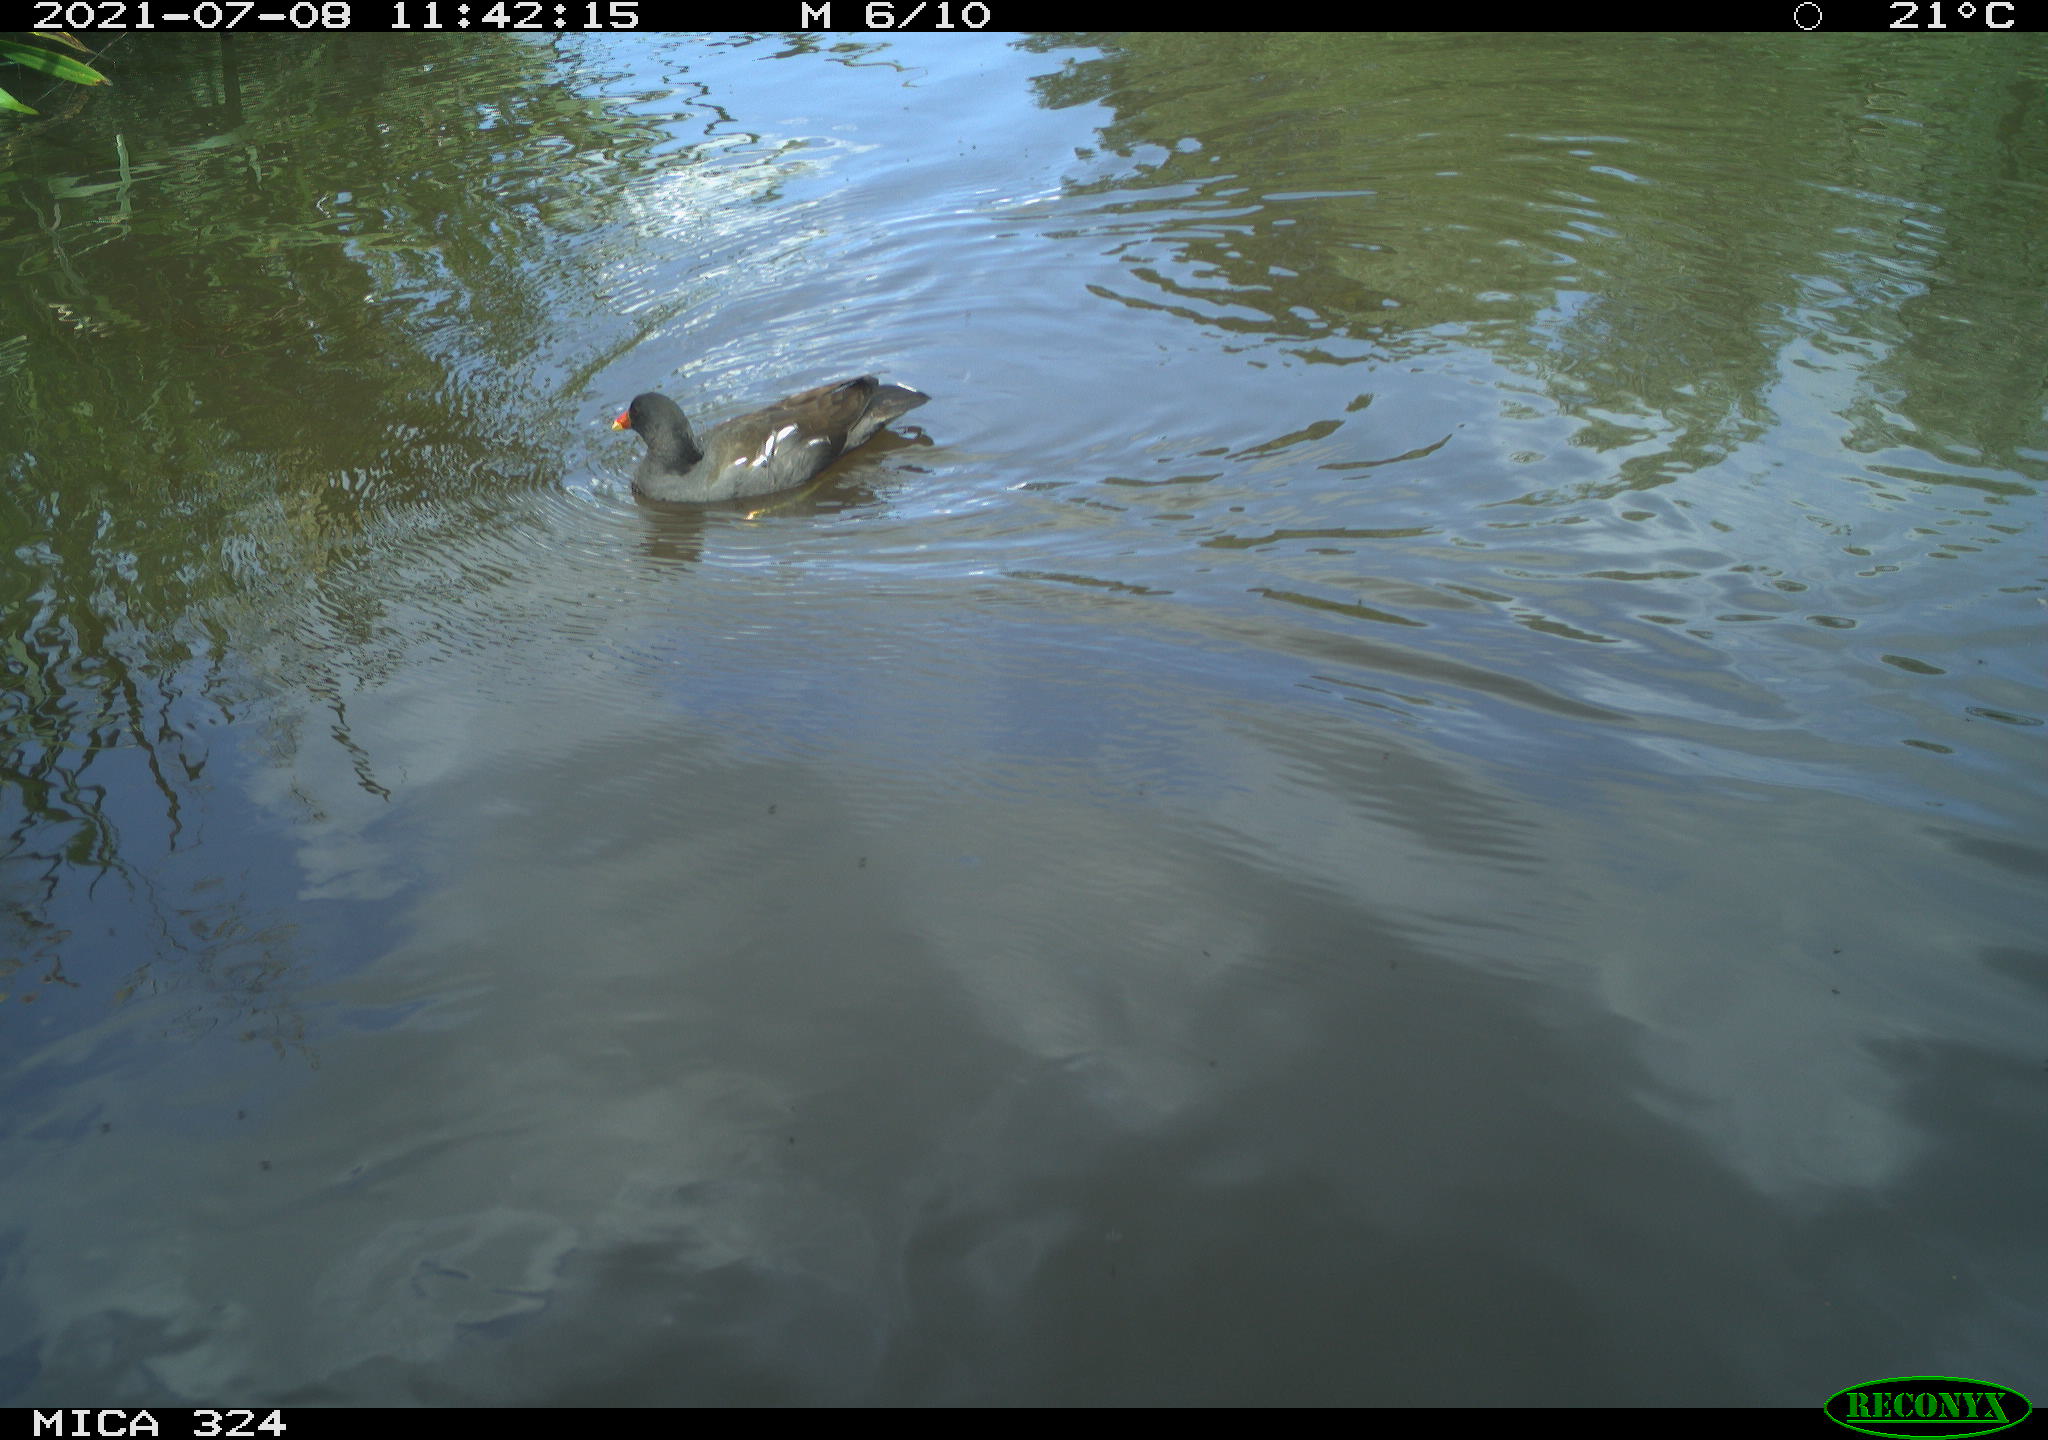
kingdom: Animalia
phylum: Chordata
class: Aves
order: Gruiformes
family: Rallidae
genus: Gallinula
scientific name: Gallinula chloropus
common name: Common moorhen
